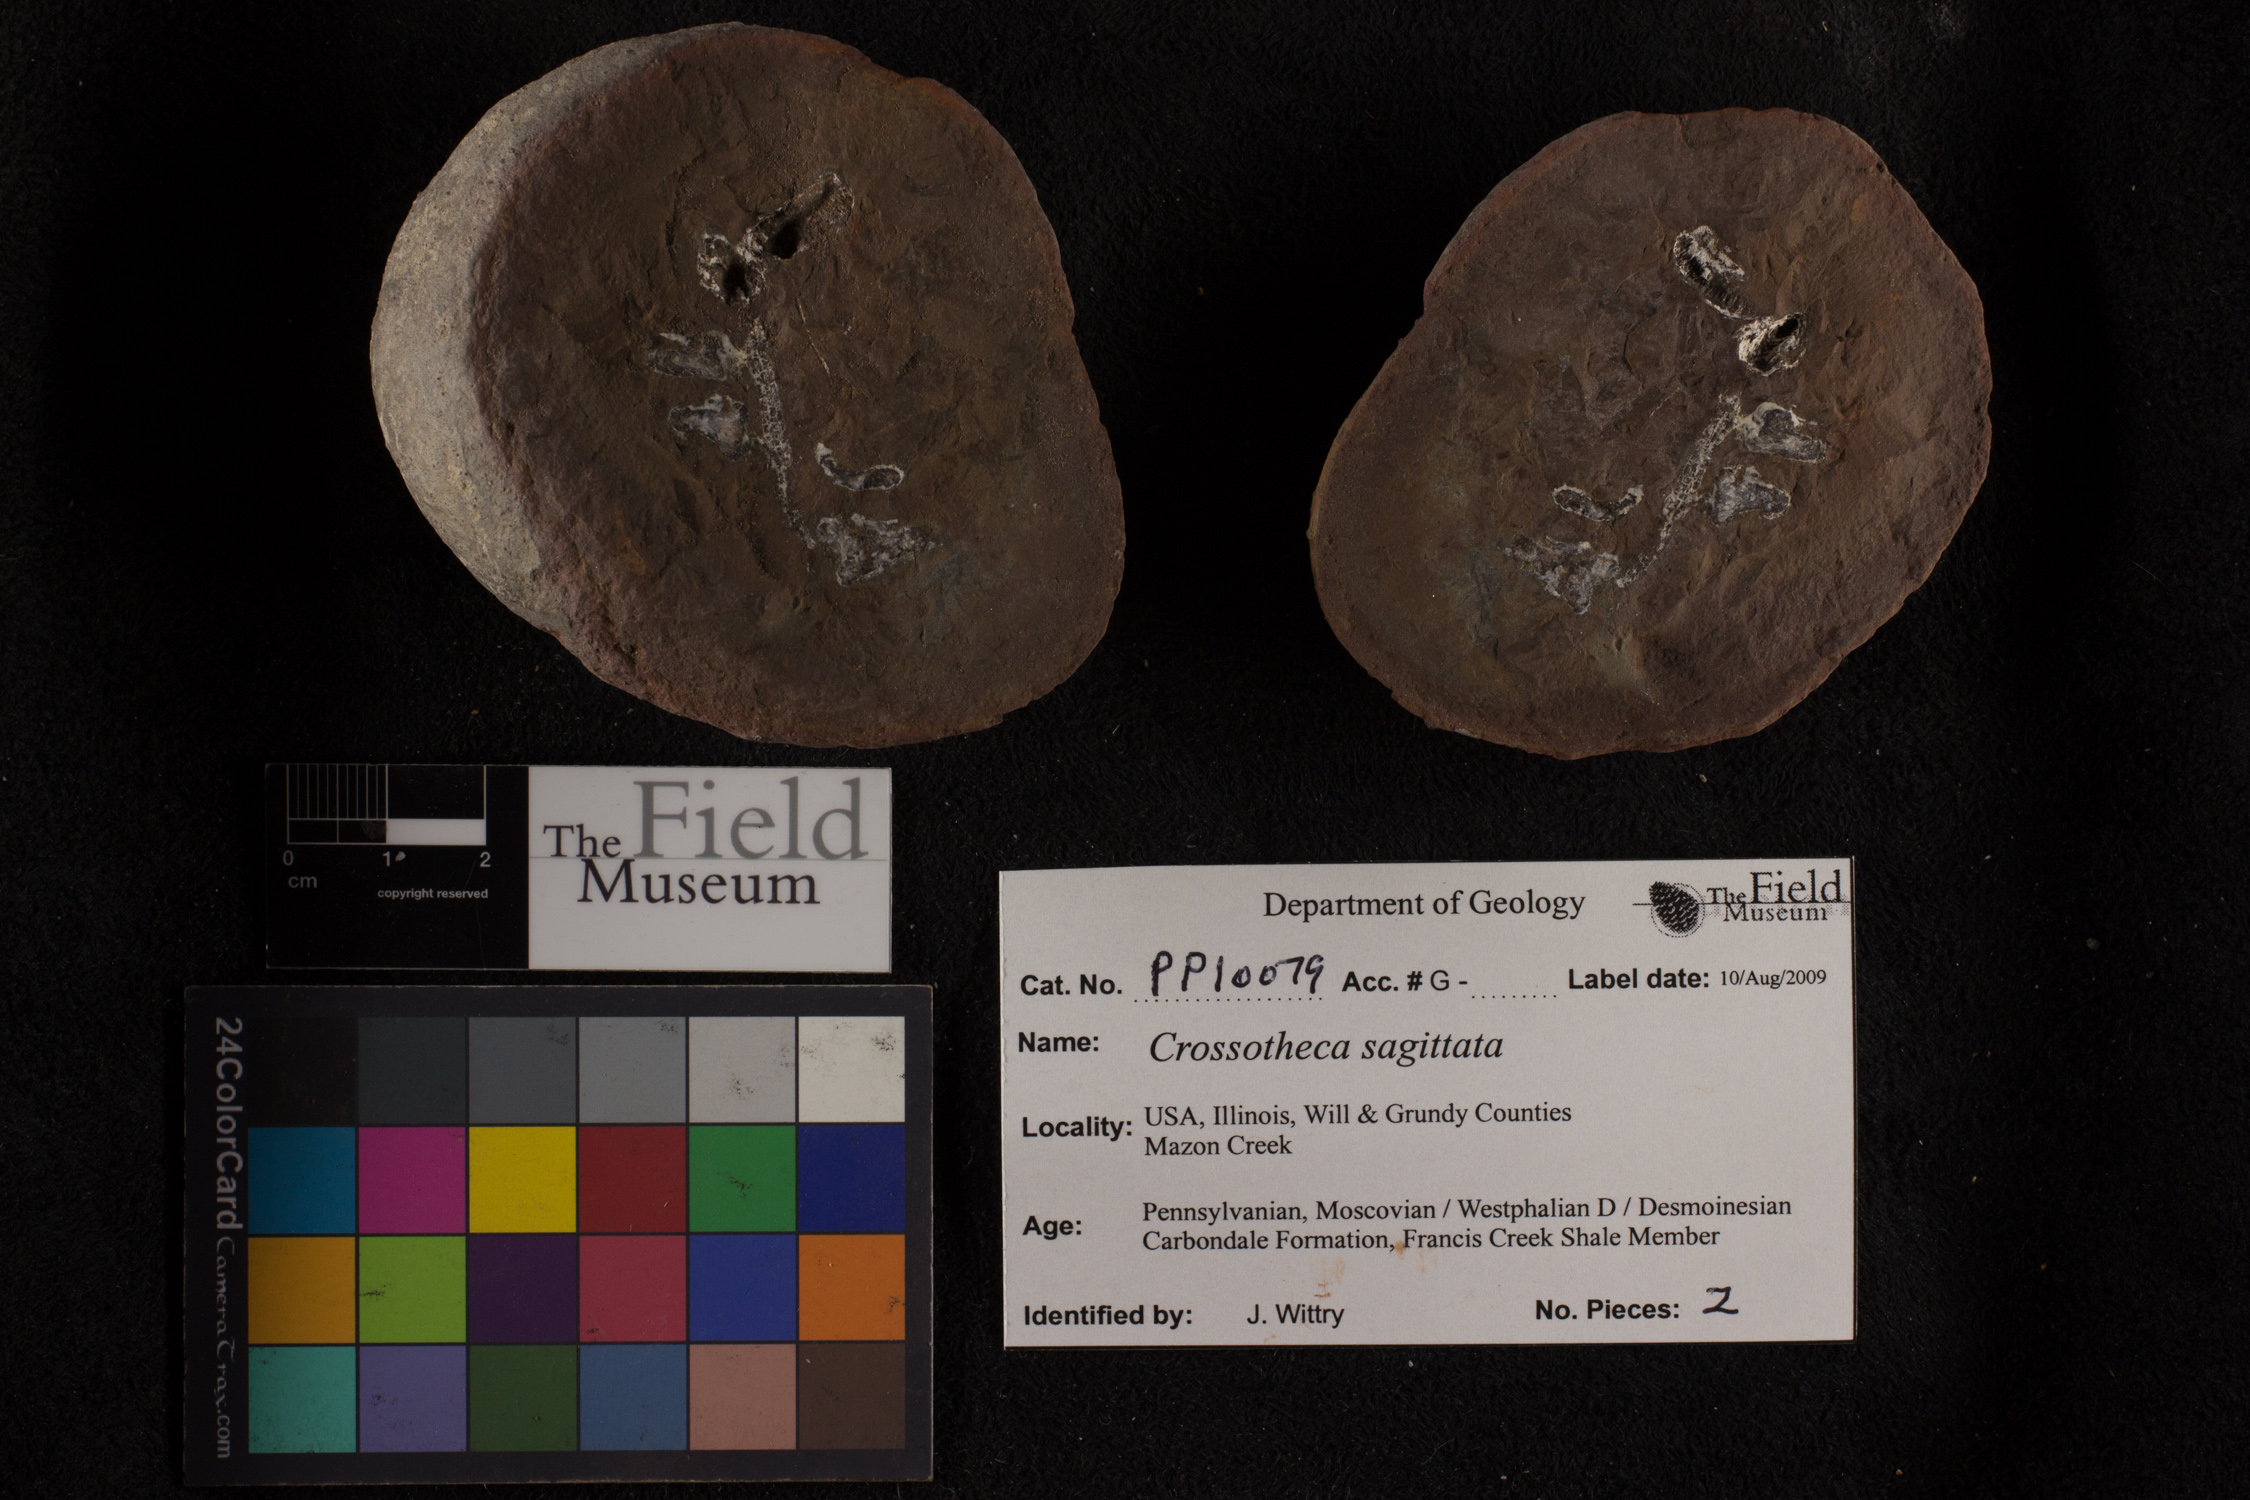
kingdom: Plantae
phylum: Tracheophyta
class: Polypodiopsida
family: Stauropteridaceae
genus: Crossotheca
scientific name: Crossotheca
